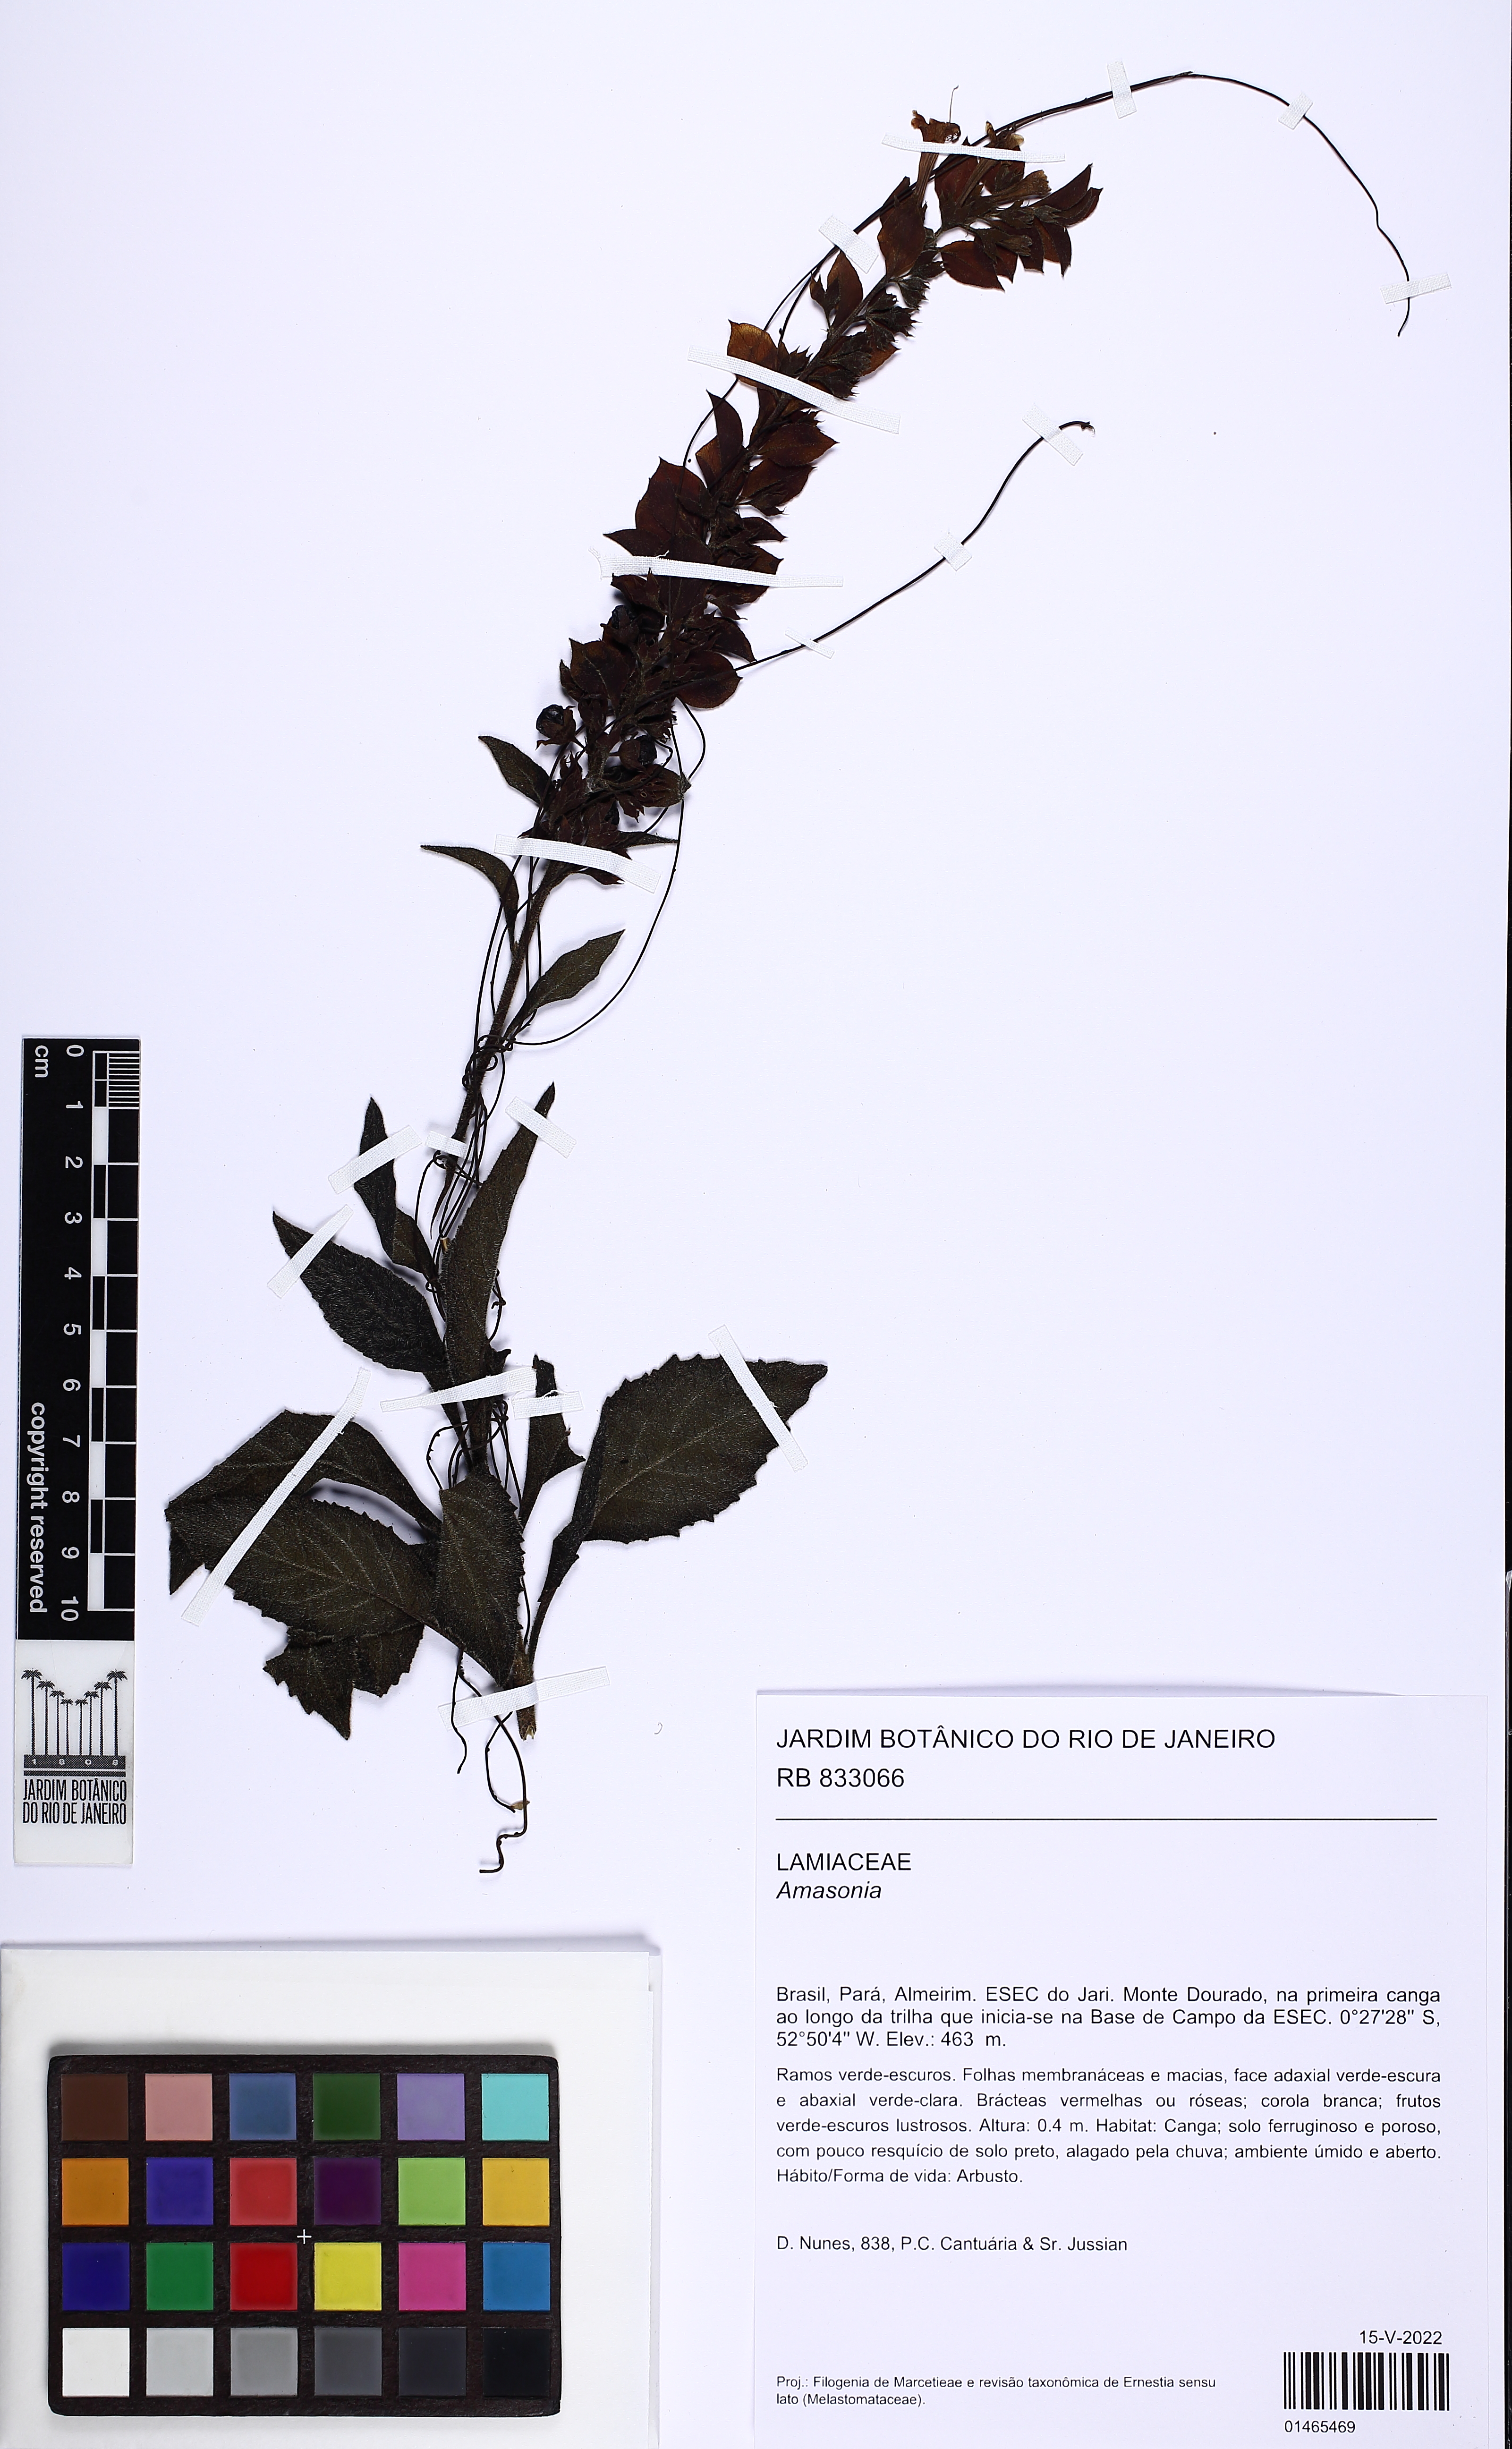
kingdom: Plantae
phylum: Tracheophyta
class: Magnoliopsida
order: Lamiales
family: Lamiaceae
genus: Amasonia
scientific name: Amasonia
